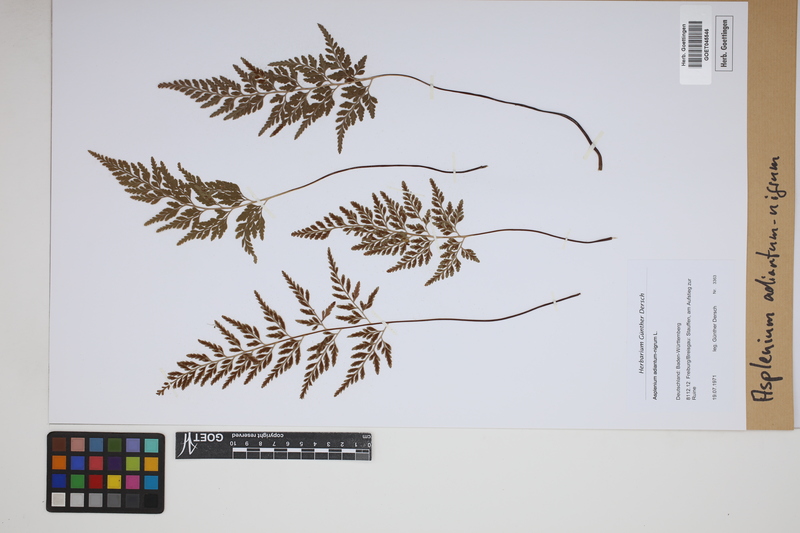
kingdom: Plantae
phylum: Tracheophyta
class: Polypodiopsida
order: Polypodiales
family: Aspleniaceae
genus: Asplenium
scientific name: Asplenium adiantum-nigrum
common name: Black spleenwort
